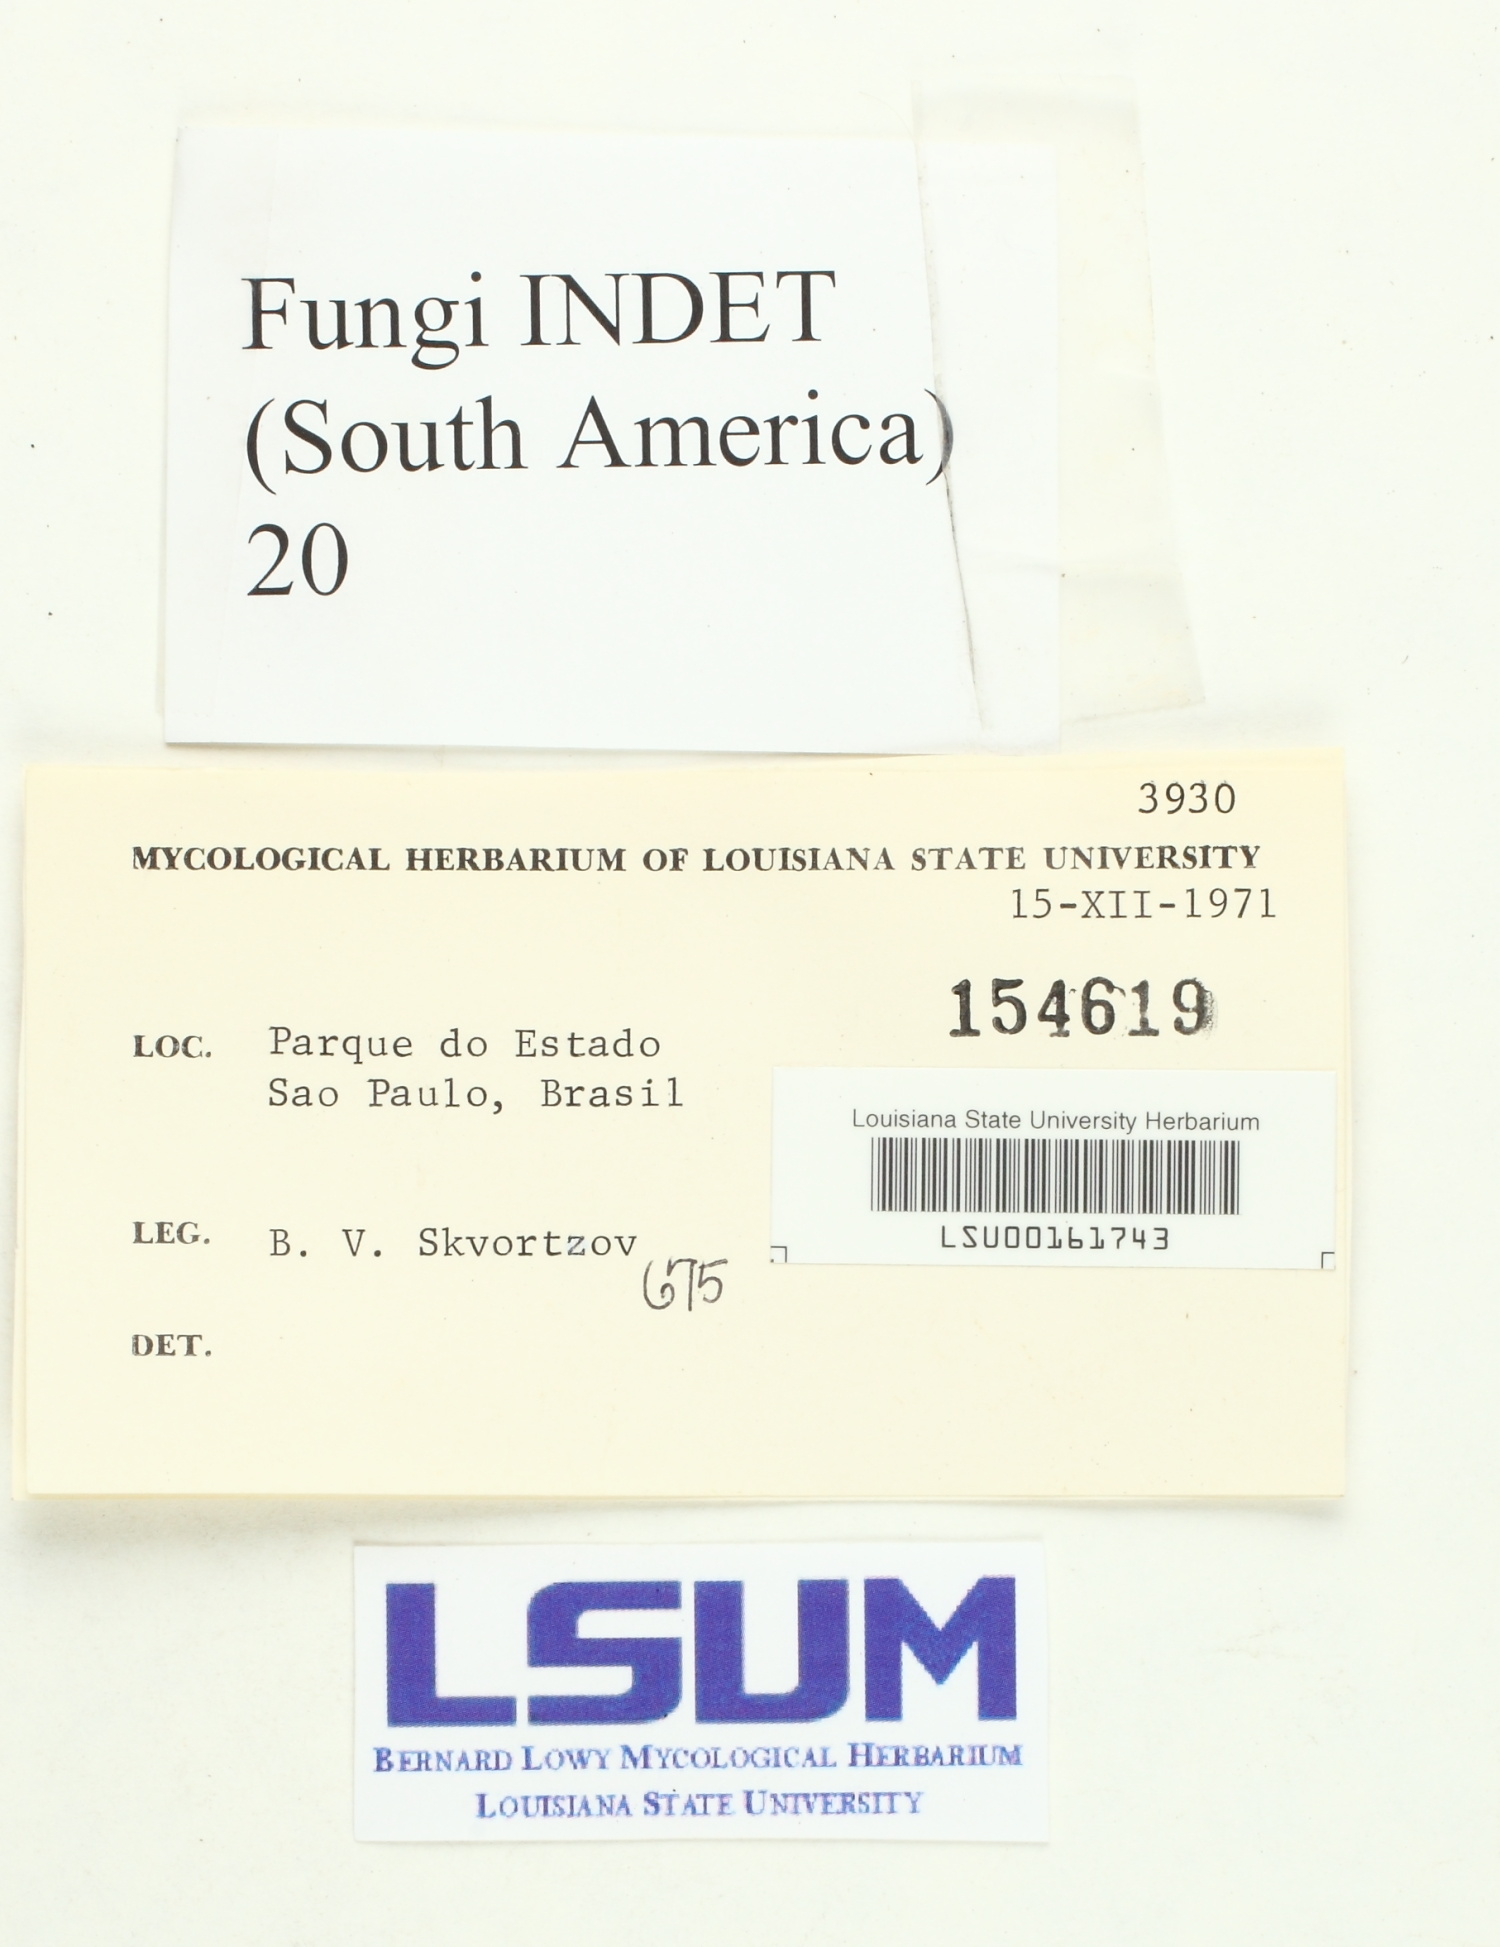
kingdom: Fungi
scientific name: Fungi
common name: Fungi
